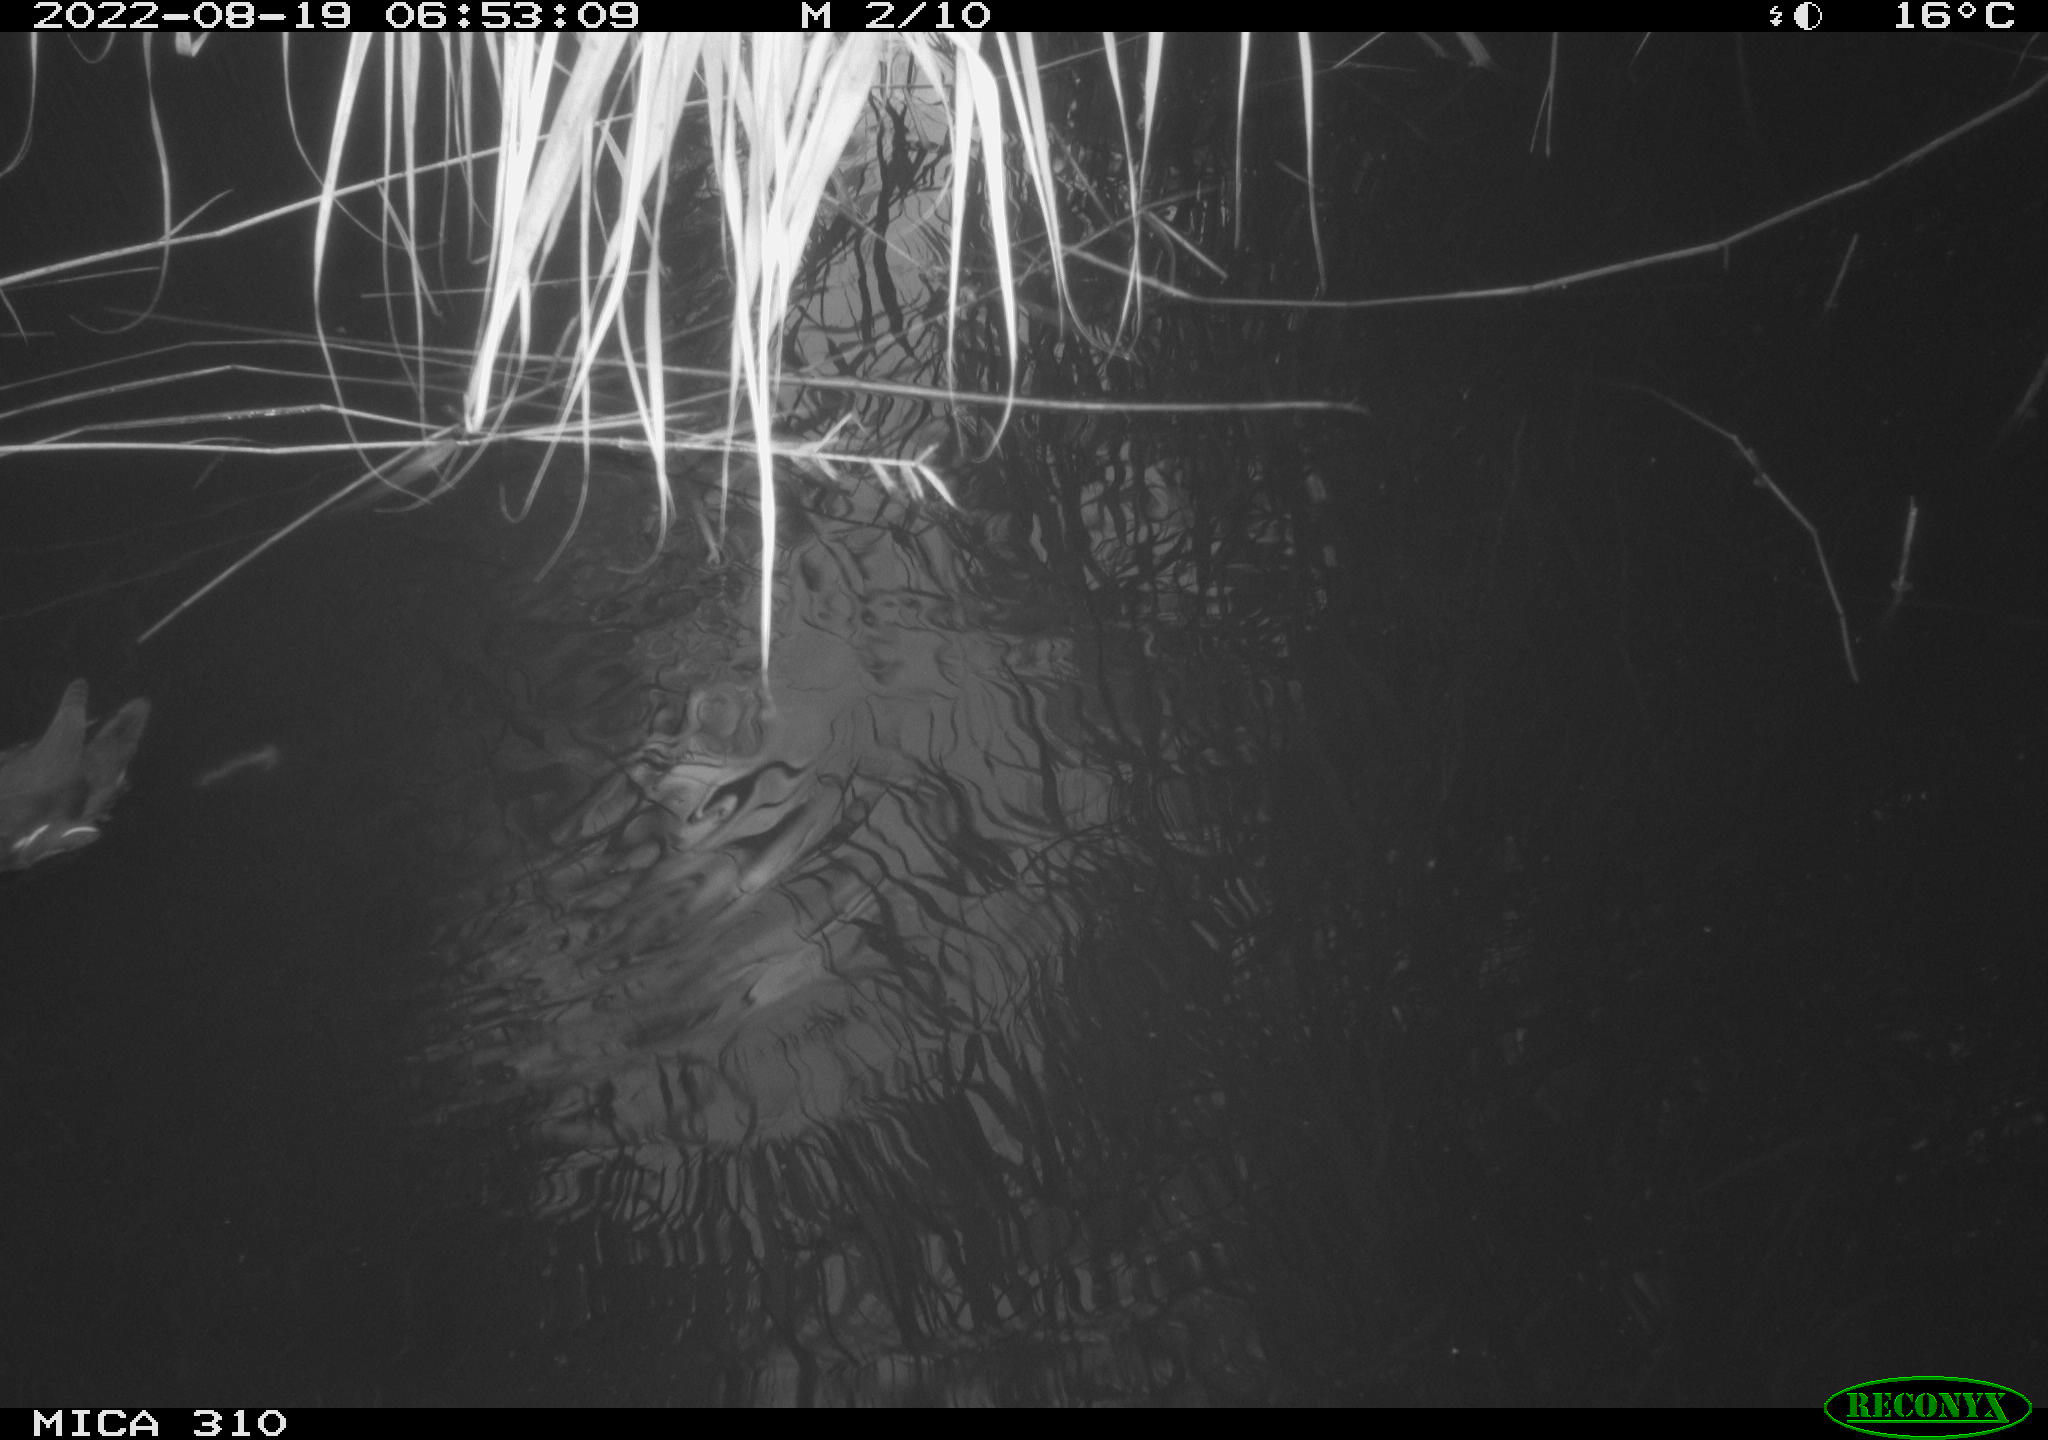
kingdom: Animalia
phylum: Chordata
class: Aves
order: Gruiformes
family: Rallidae
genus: Gallinula
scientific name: Gallinula chloropus
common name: Common moorhen
